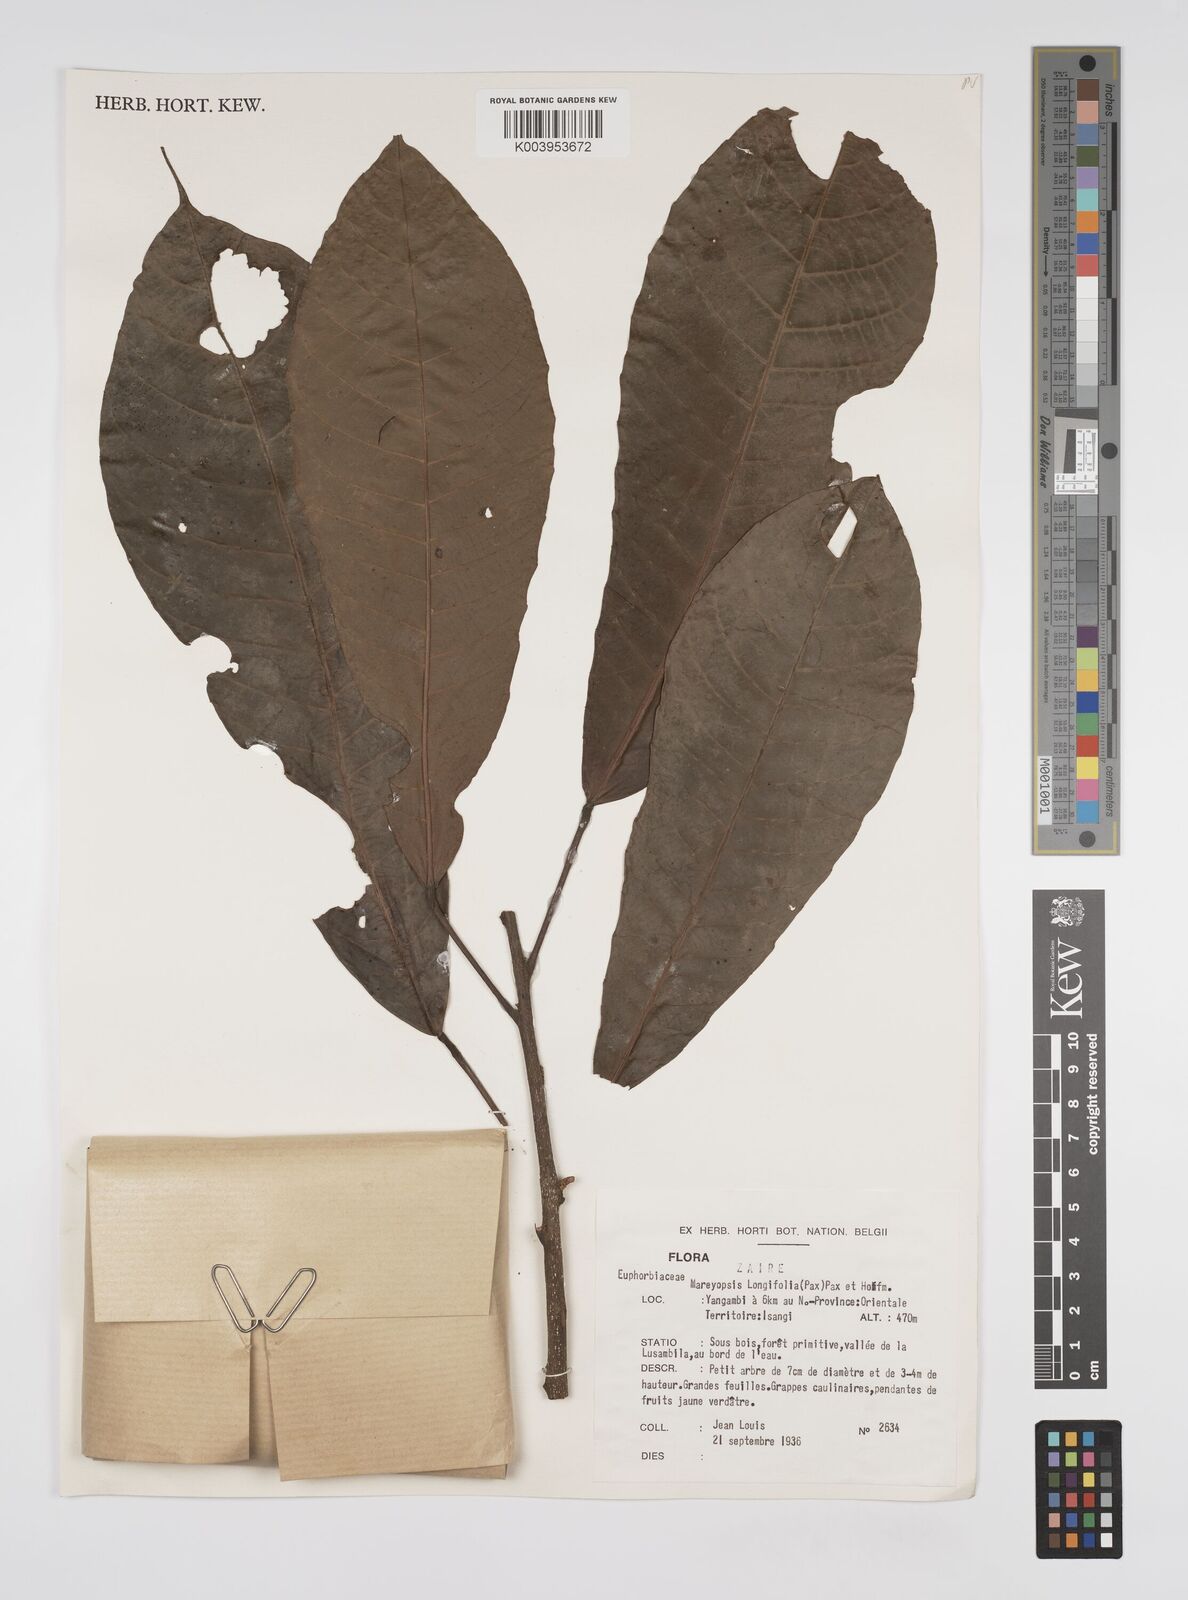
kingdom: Plantae
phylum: Tracheophyta
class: Magnoliopsida
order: Malpighiales
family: Euphorbiaceae
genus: Mareyopsis
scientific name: Mareyopsis longifolia
